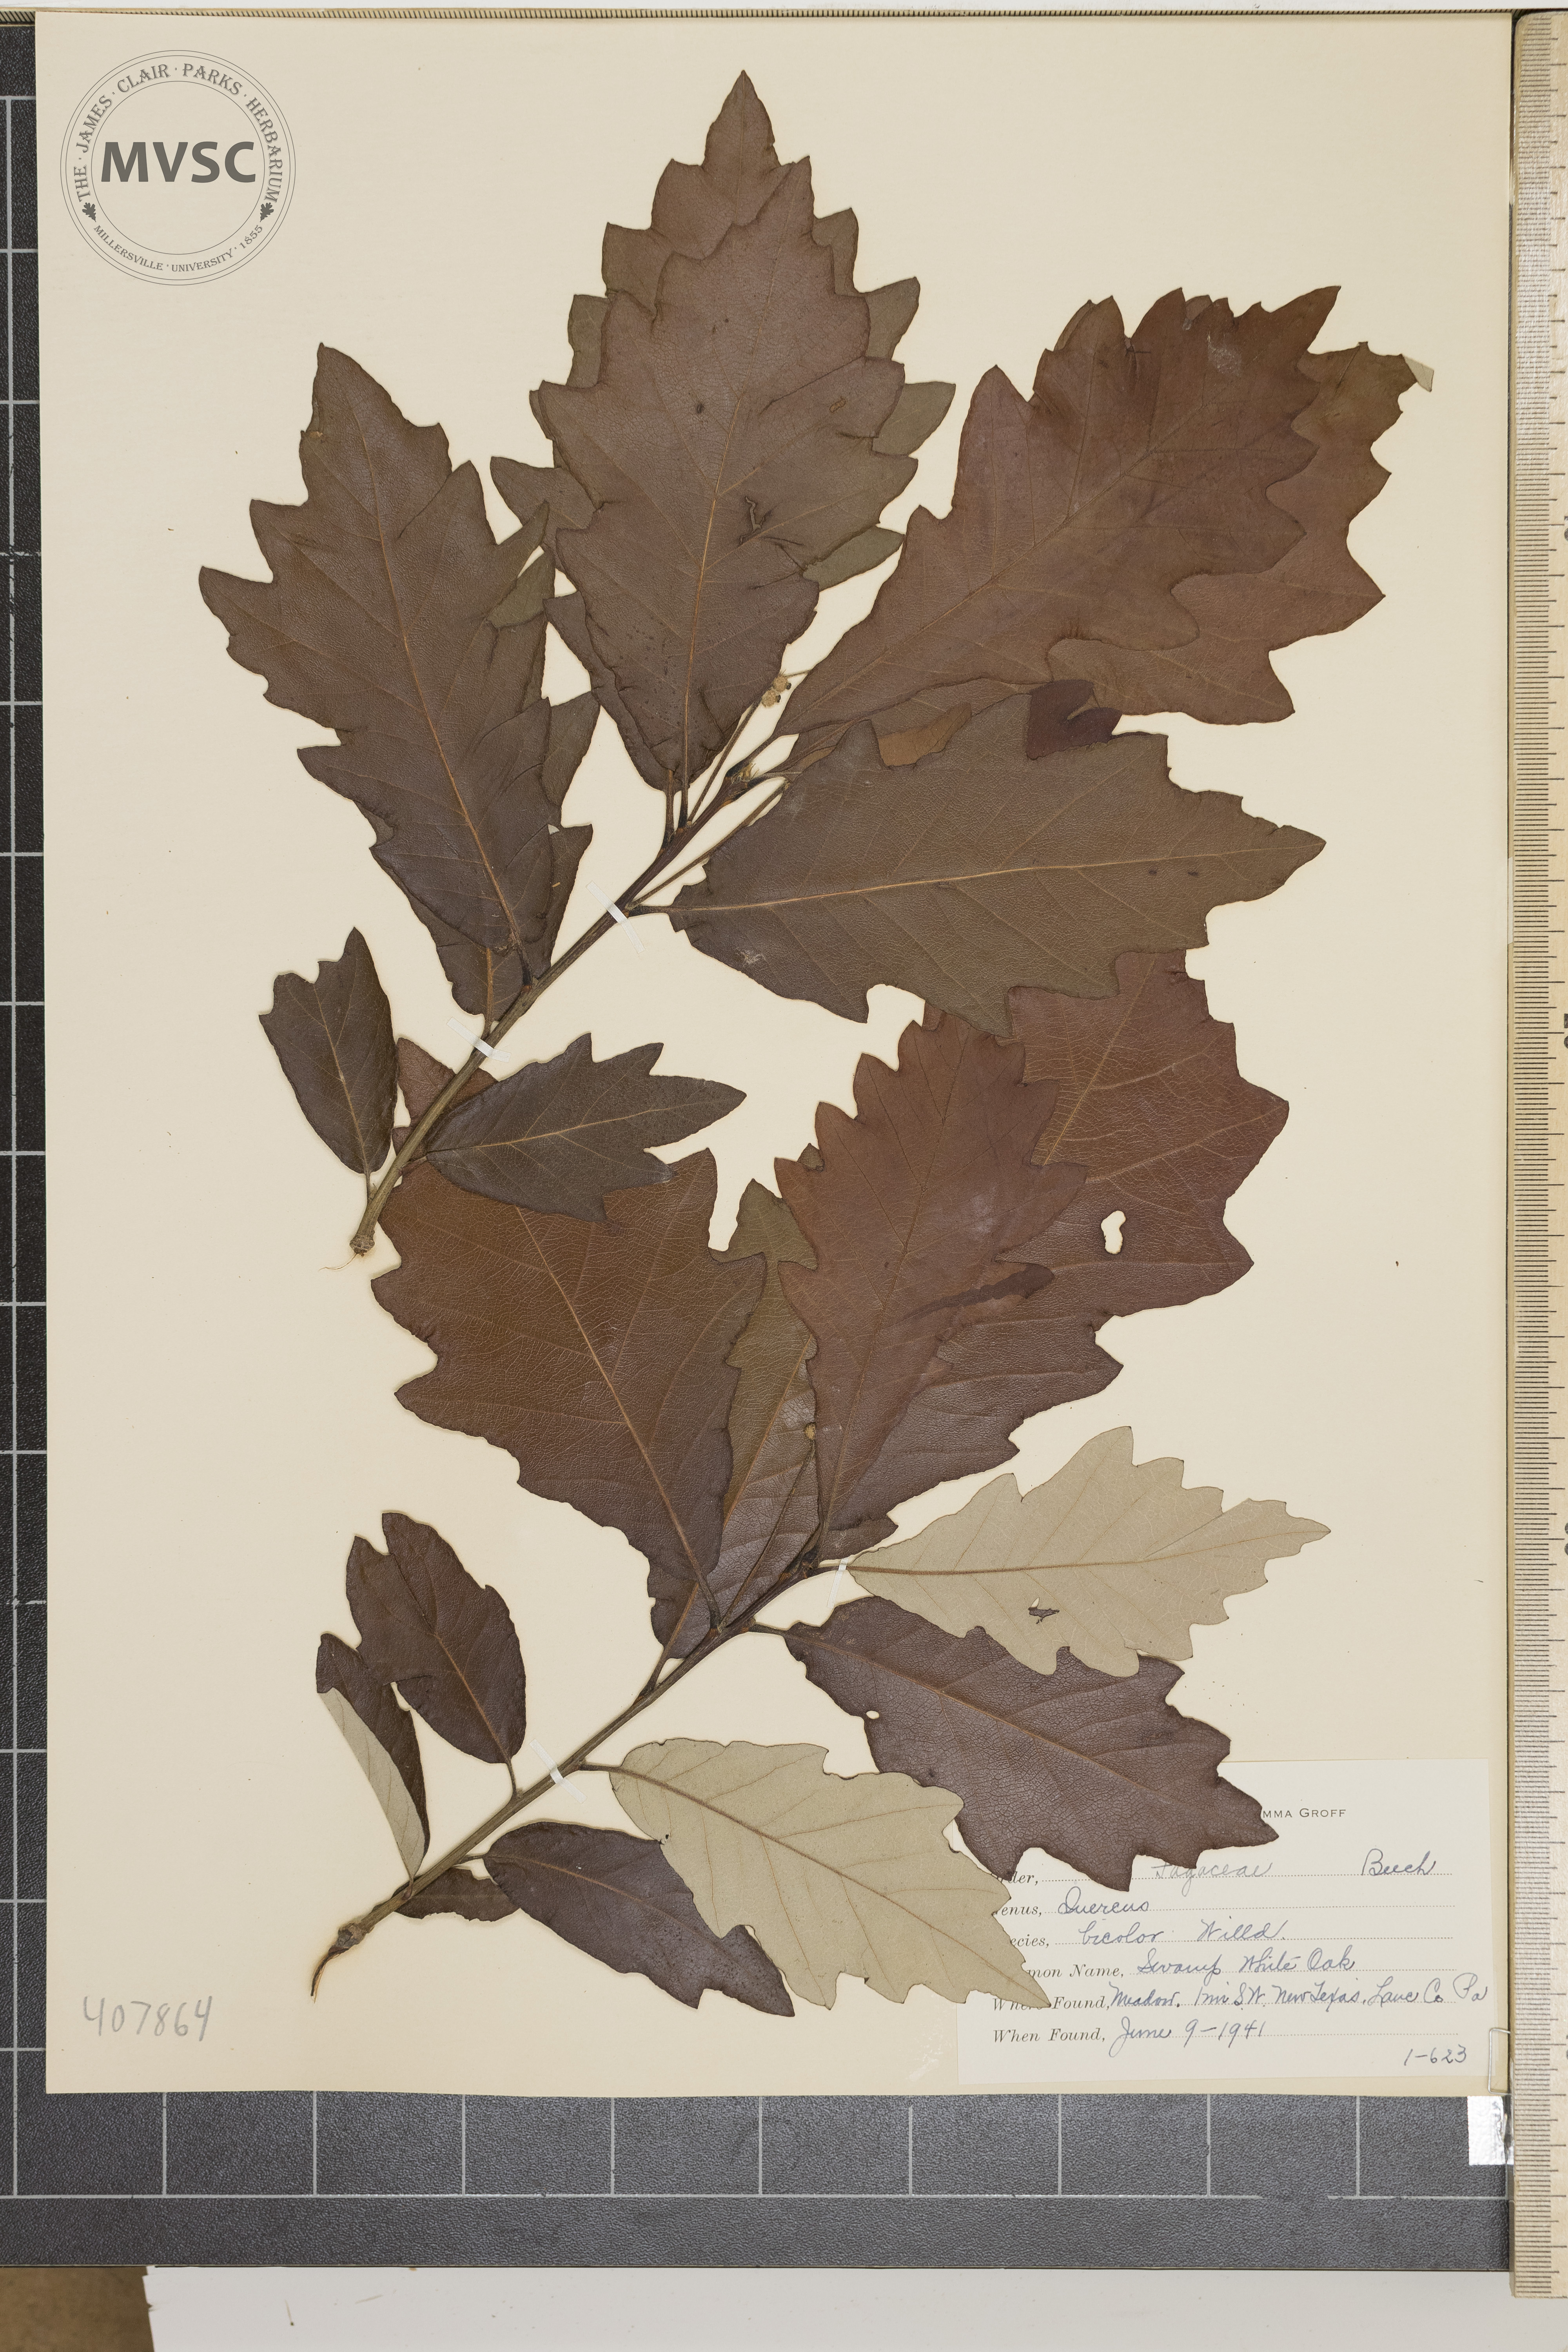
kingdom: Plantae
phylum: Tracheophyta
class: Magnoliopsida
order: Fagales
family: Fagaceae
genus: Quercus
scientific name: Quercus bicolor
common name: Swamp white oak
